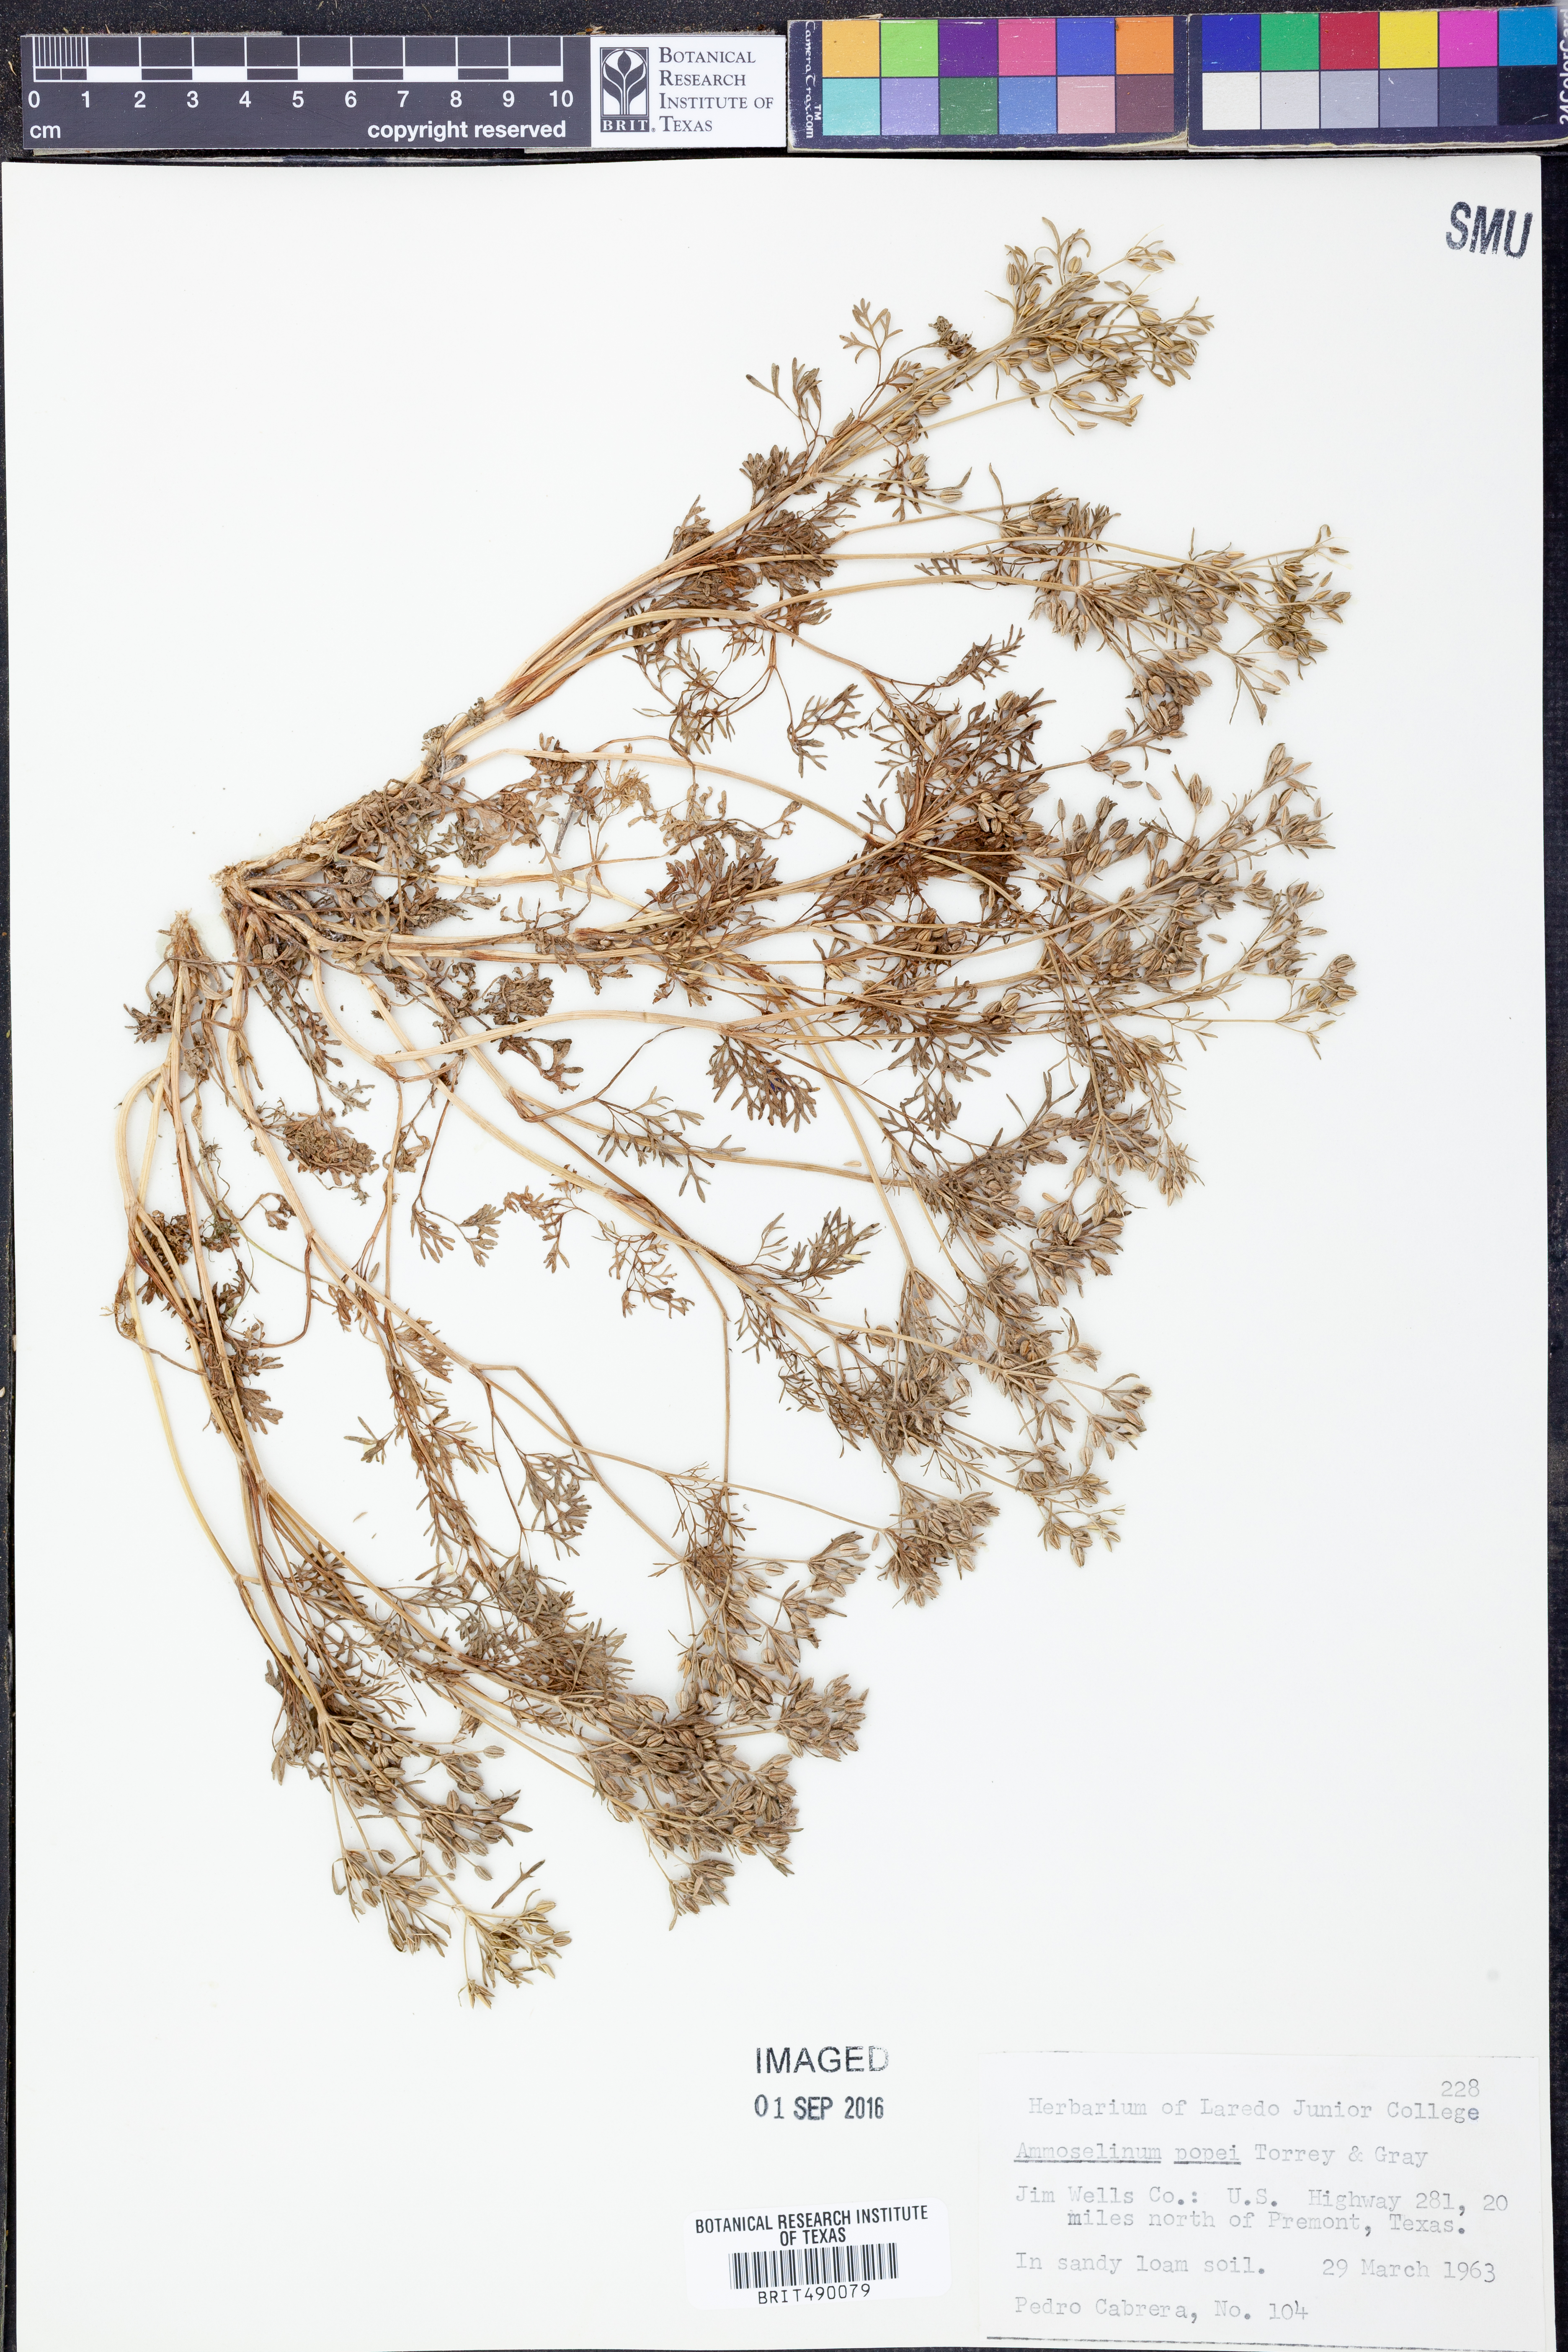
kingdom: Plantae
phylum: Tracheophyta
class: Magnoliopsida
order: Apiales
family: Apiaceae
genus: Ammoselinum
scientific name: Ammoselinum popei
